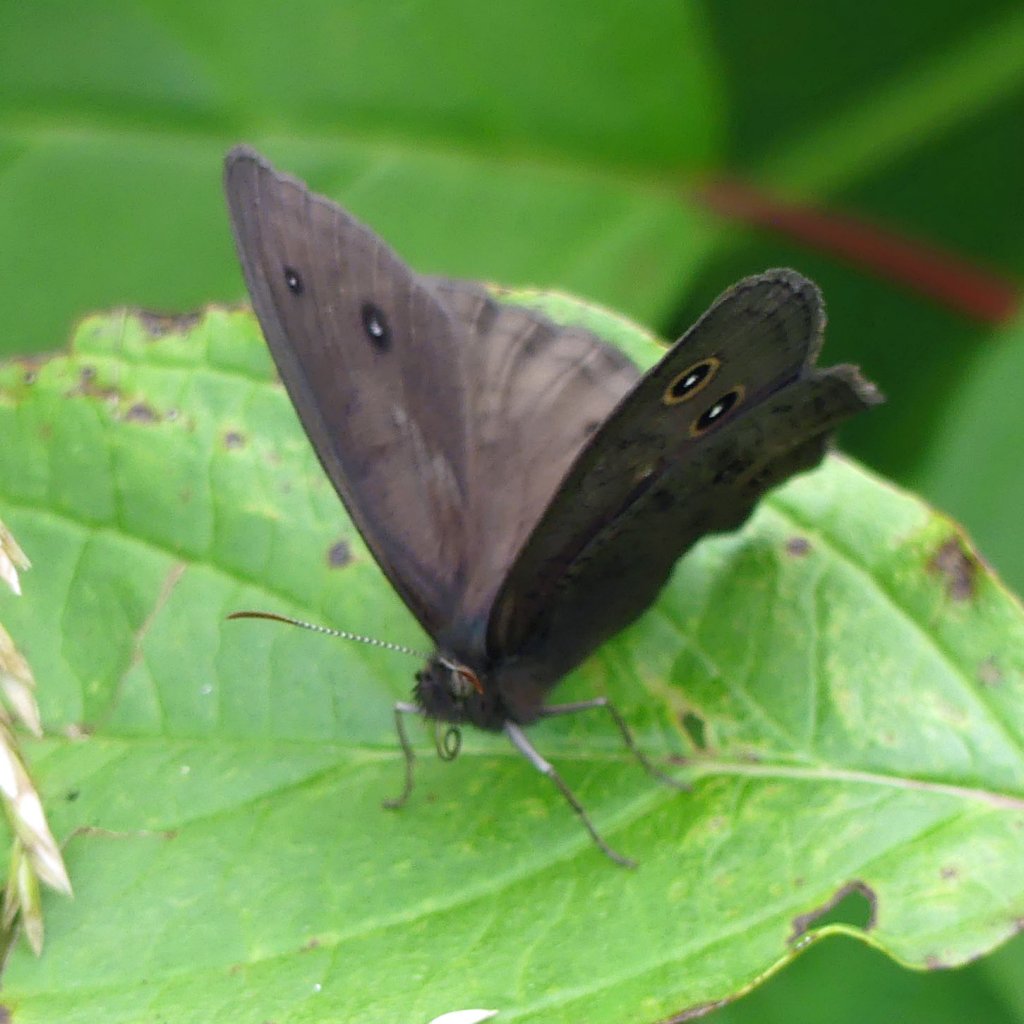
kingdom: Animalia
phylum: Arthropoda
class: Insecta
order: Lepidoptera
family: Nymphalidae
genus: Cercyonis
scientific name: Cercyonis pegala
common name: Common Wood-Nymph
